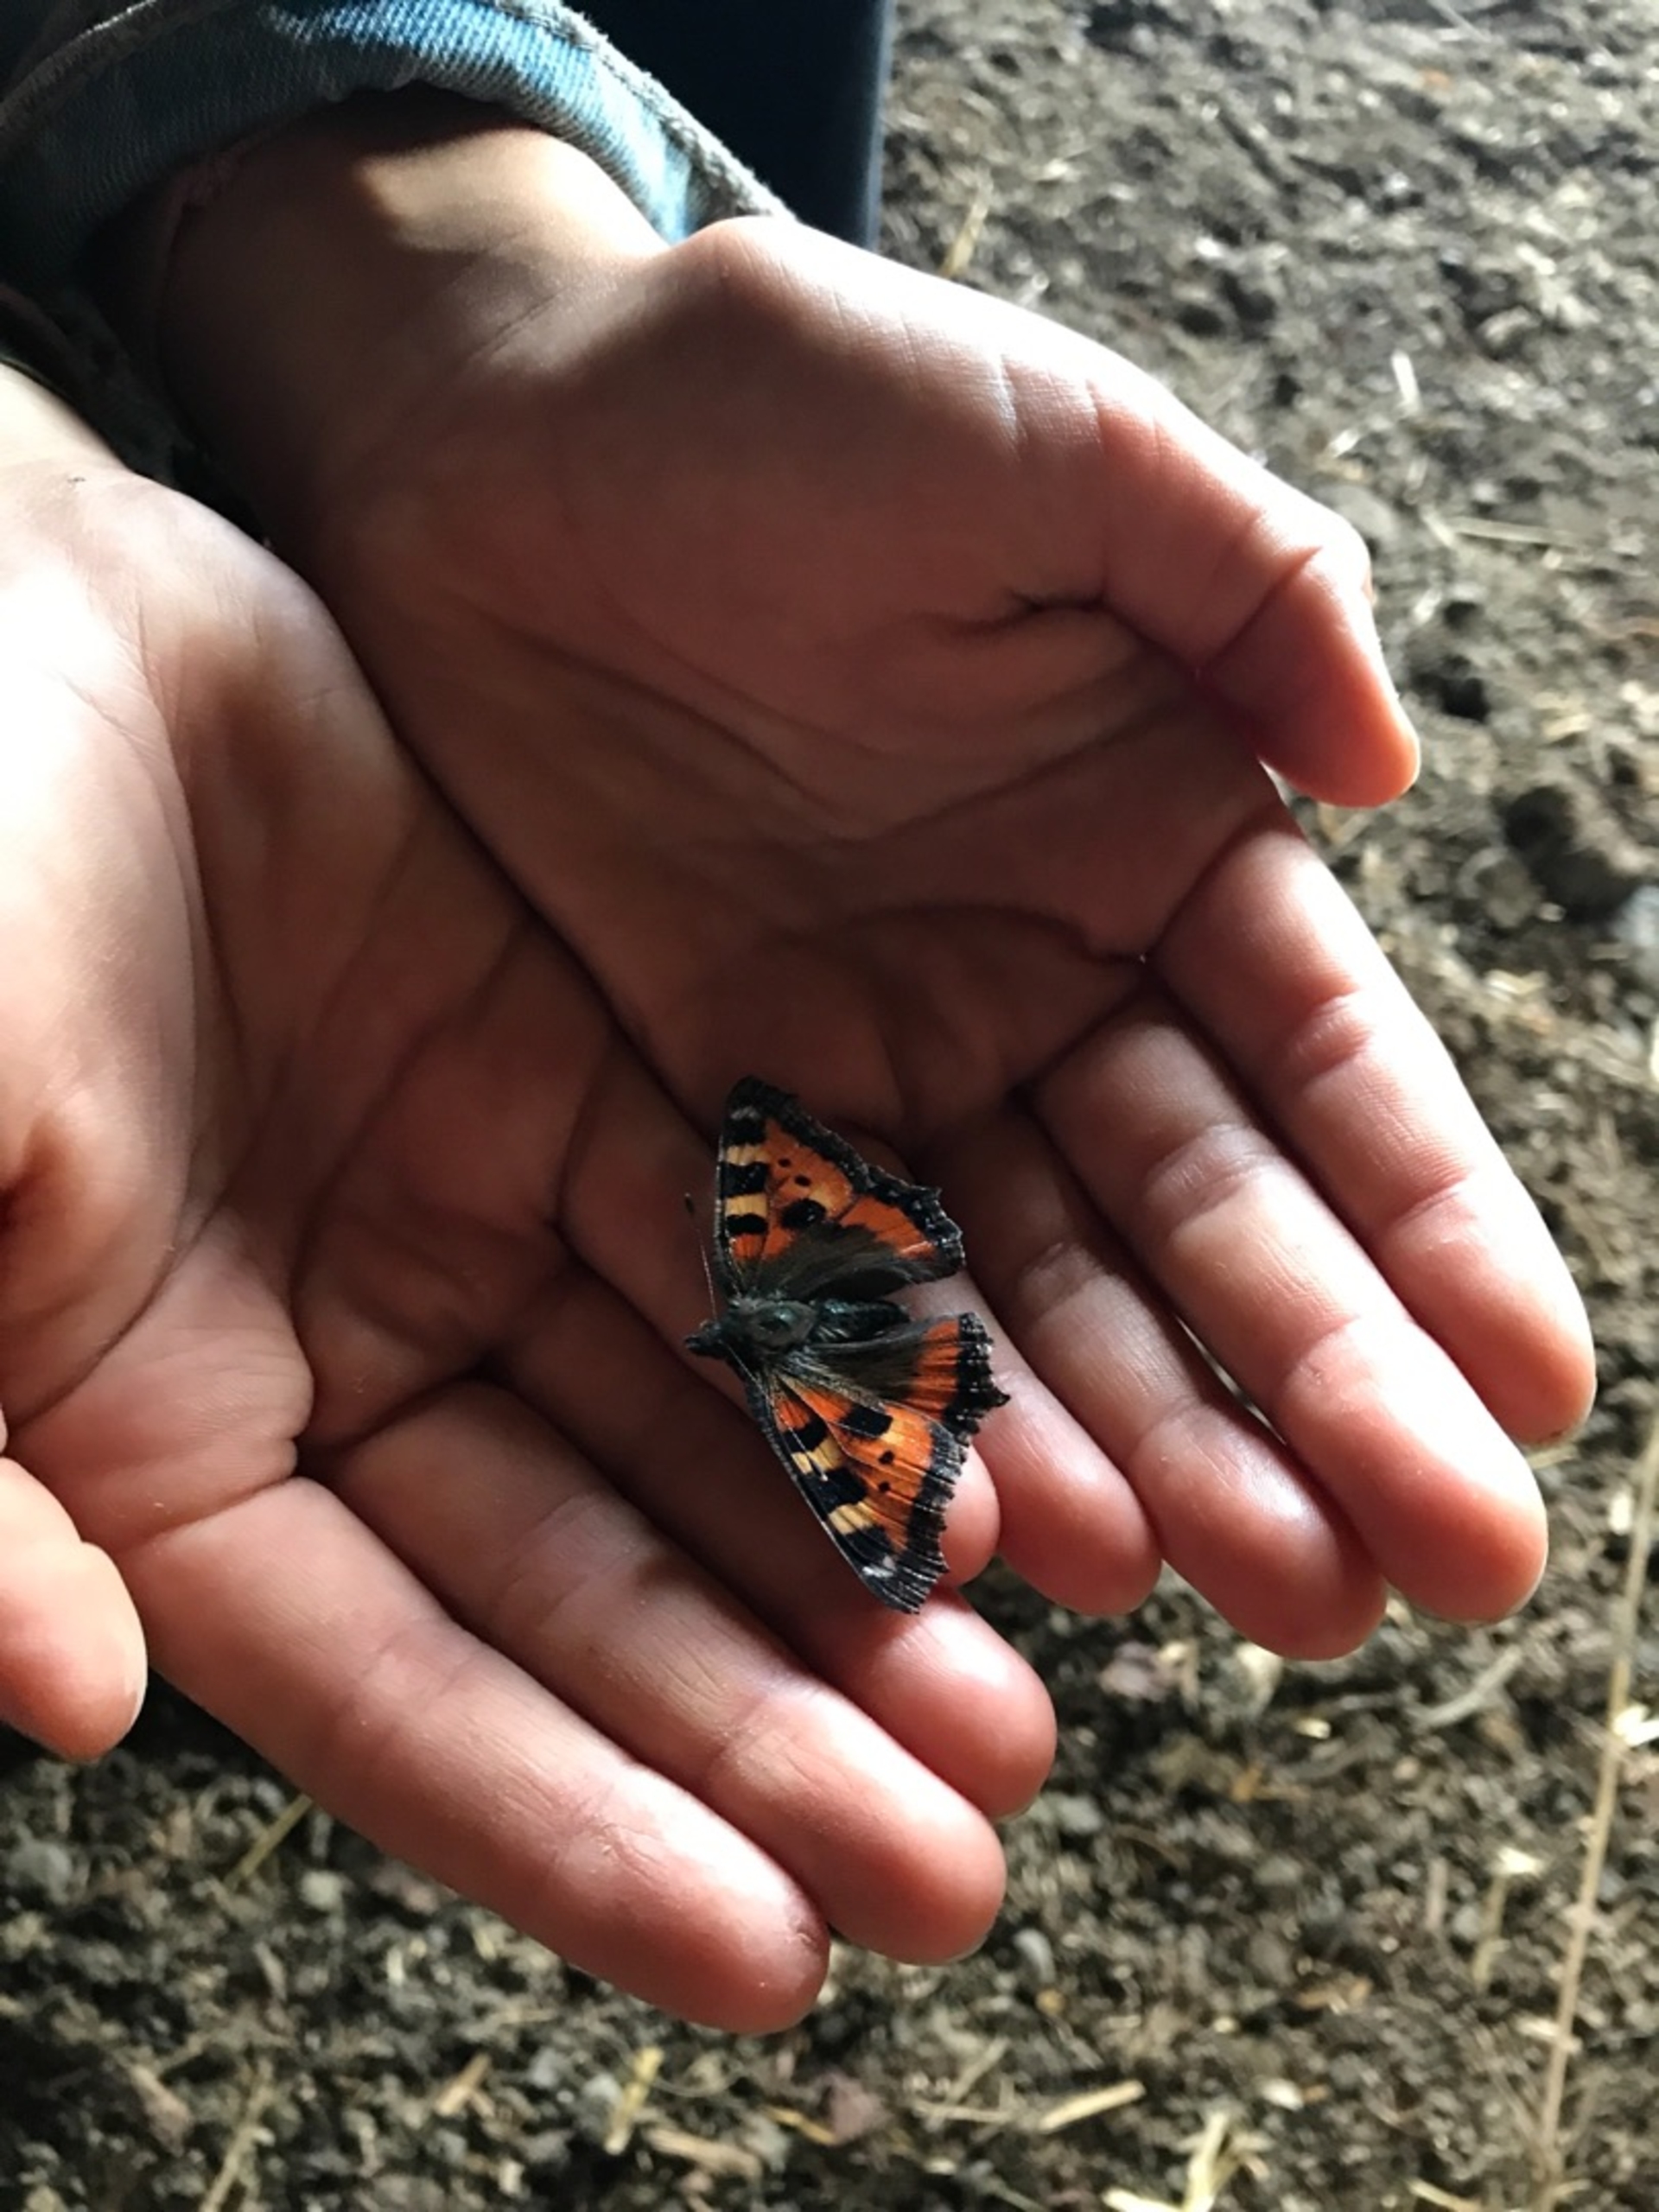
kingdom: Animalia
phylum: Arthropoda
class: Insecta
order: Lepidoptera
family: Nymphalidae
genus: Aglais
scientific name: Aglais urticae
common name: Nældens takvinge
